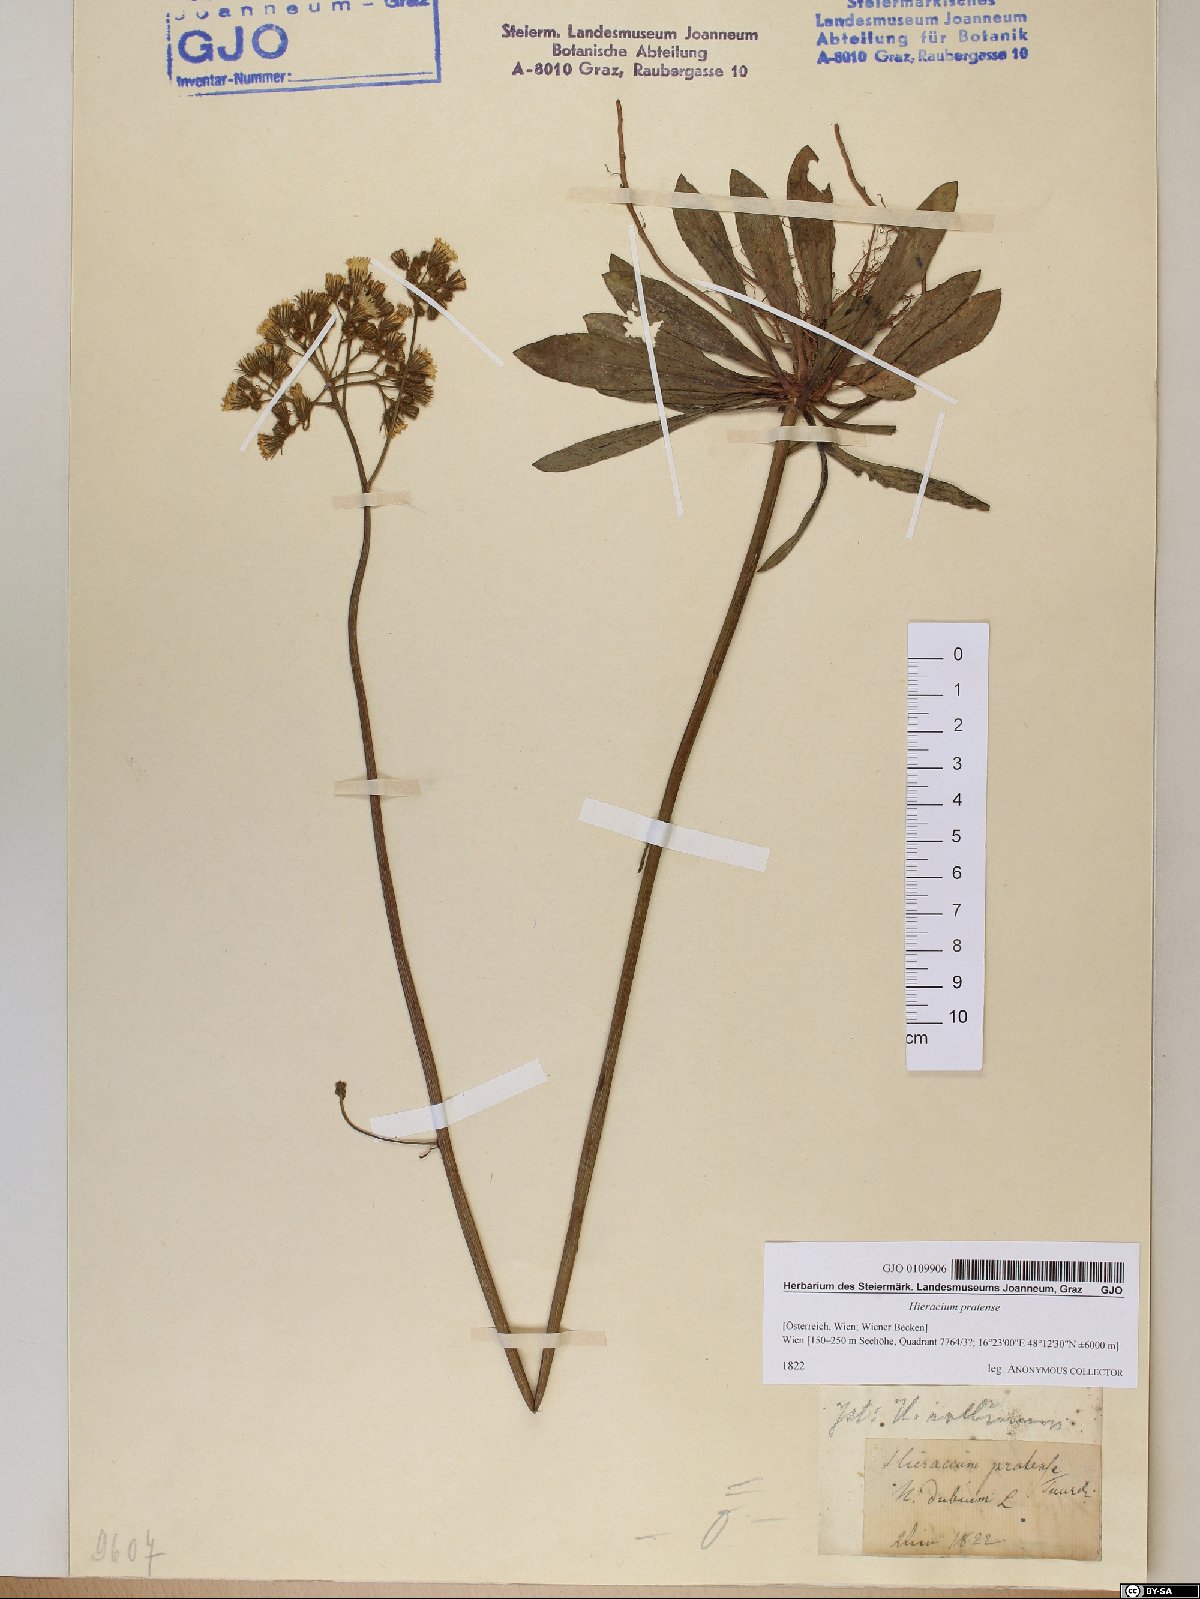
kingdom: Plantae
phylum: Tracheophyta
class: Magnoliopsida
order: Asterales
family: Asteraceae
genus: Pilosella
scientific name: Pilosella caespitosa
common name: Yellow fox-and-cubs
